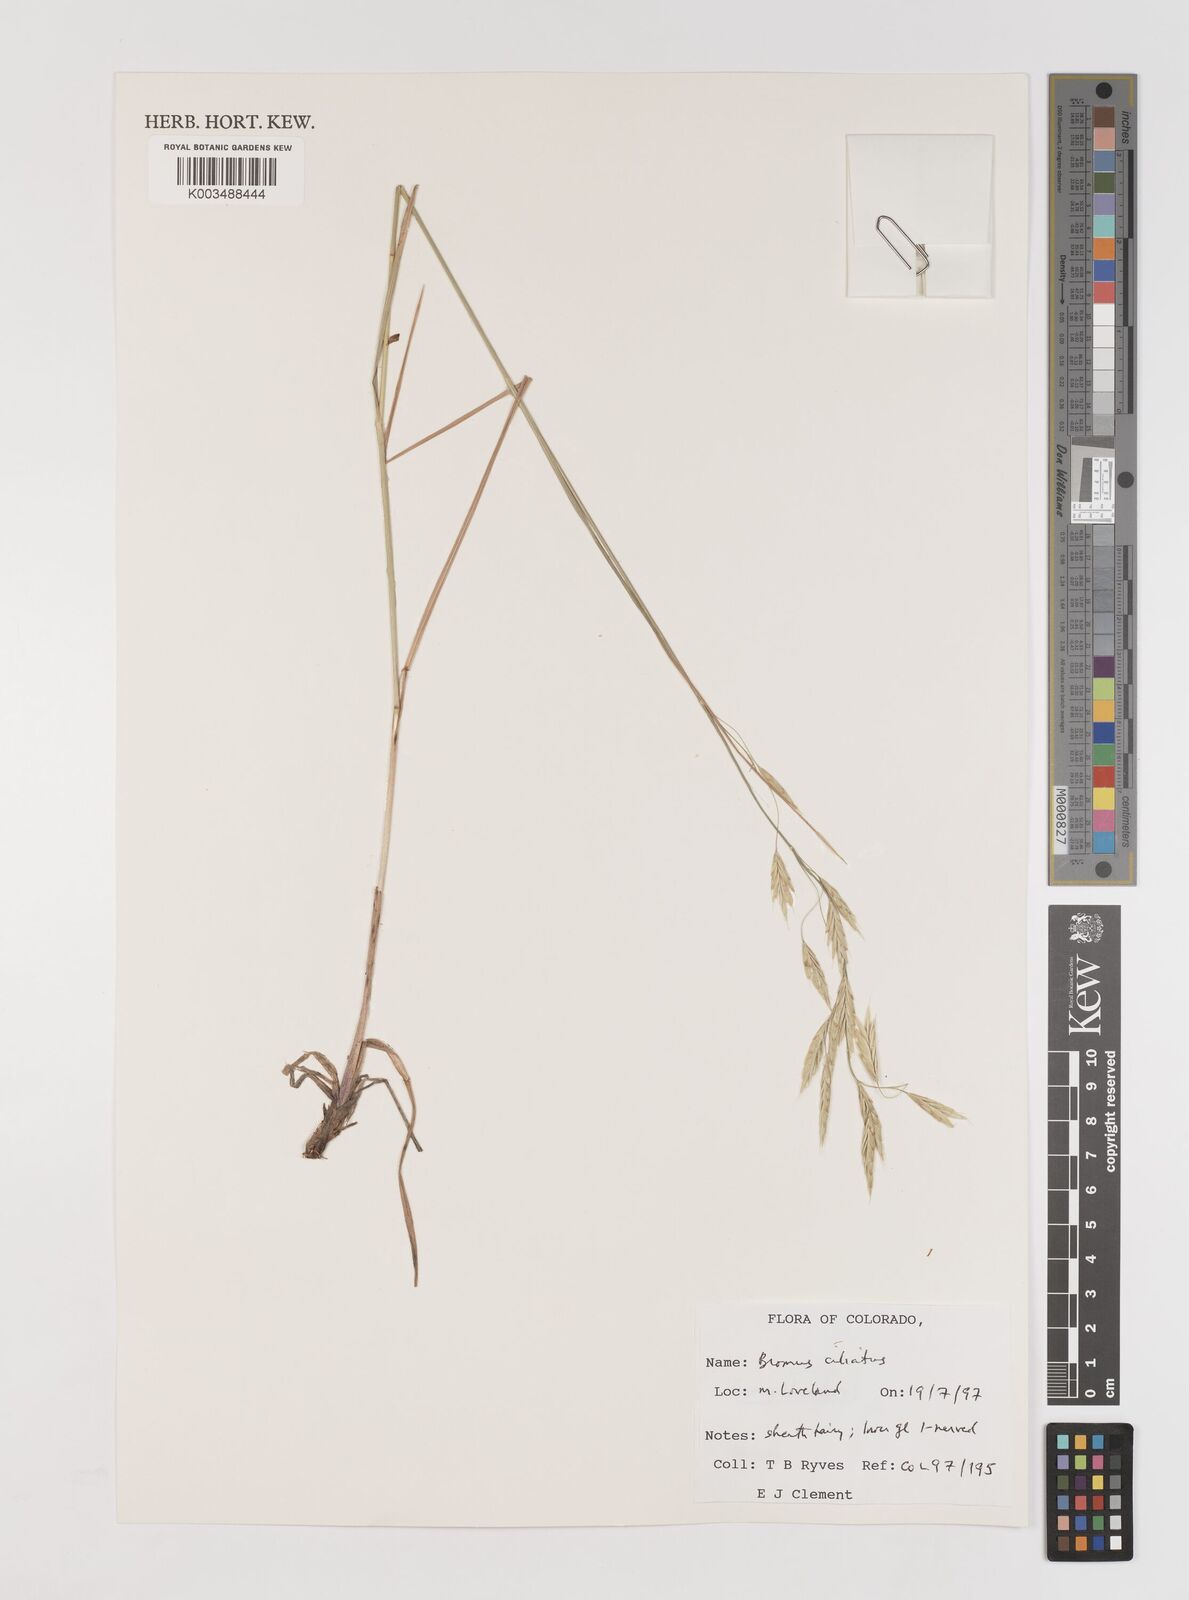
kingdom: Plantae
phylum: Tracheophyta
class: Liliopsida
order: Poales
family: Poaceae
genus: Bromus
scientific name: Bromus ciliatus
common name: Fringe brome
